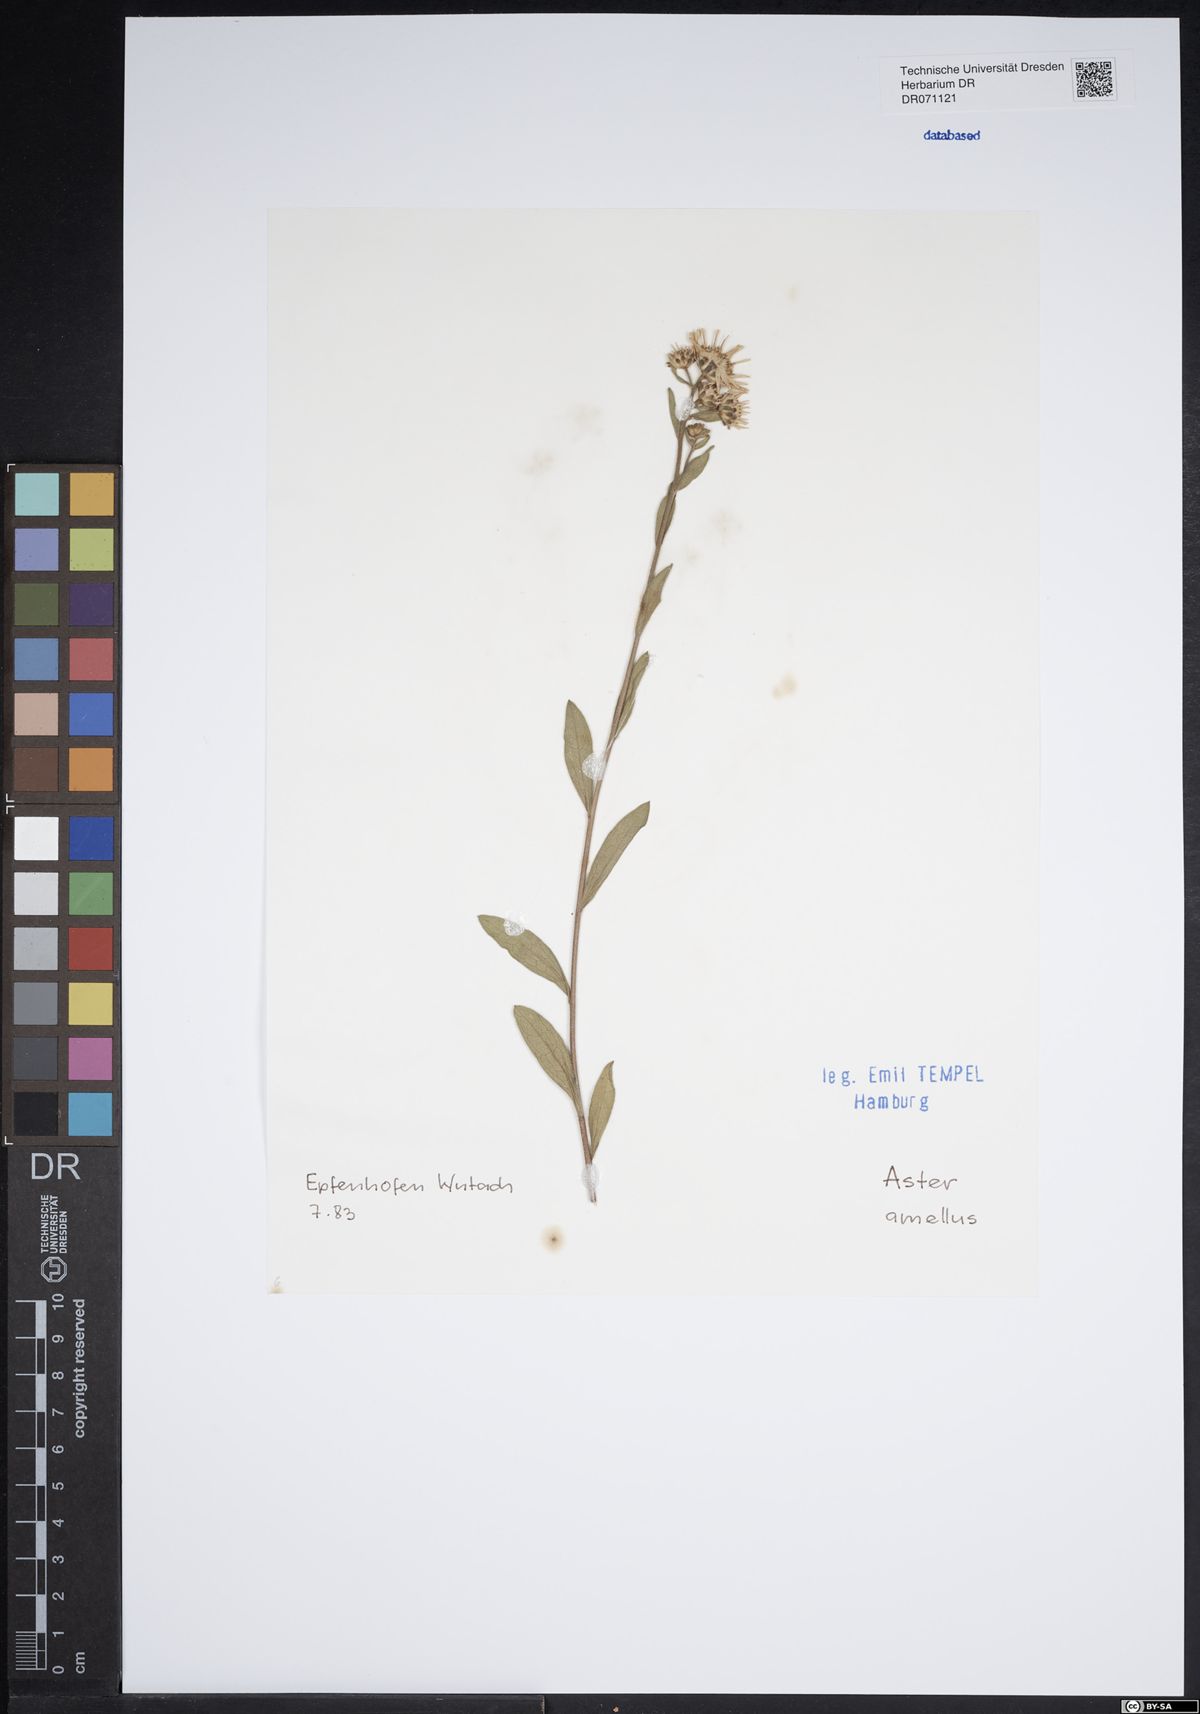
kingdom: Plantae
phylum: Tracheophyta
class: Magnoliopsida
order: Asterales
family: Asteraceae
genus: Aster
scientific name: Aster amellus
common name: European michaelmas daisy
